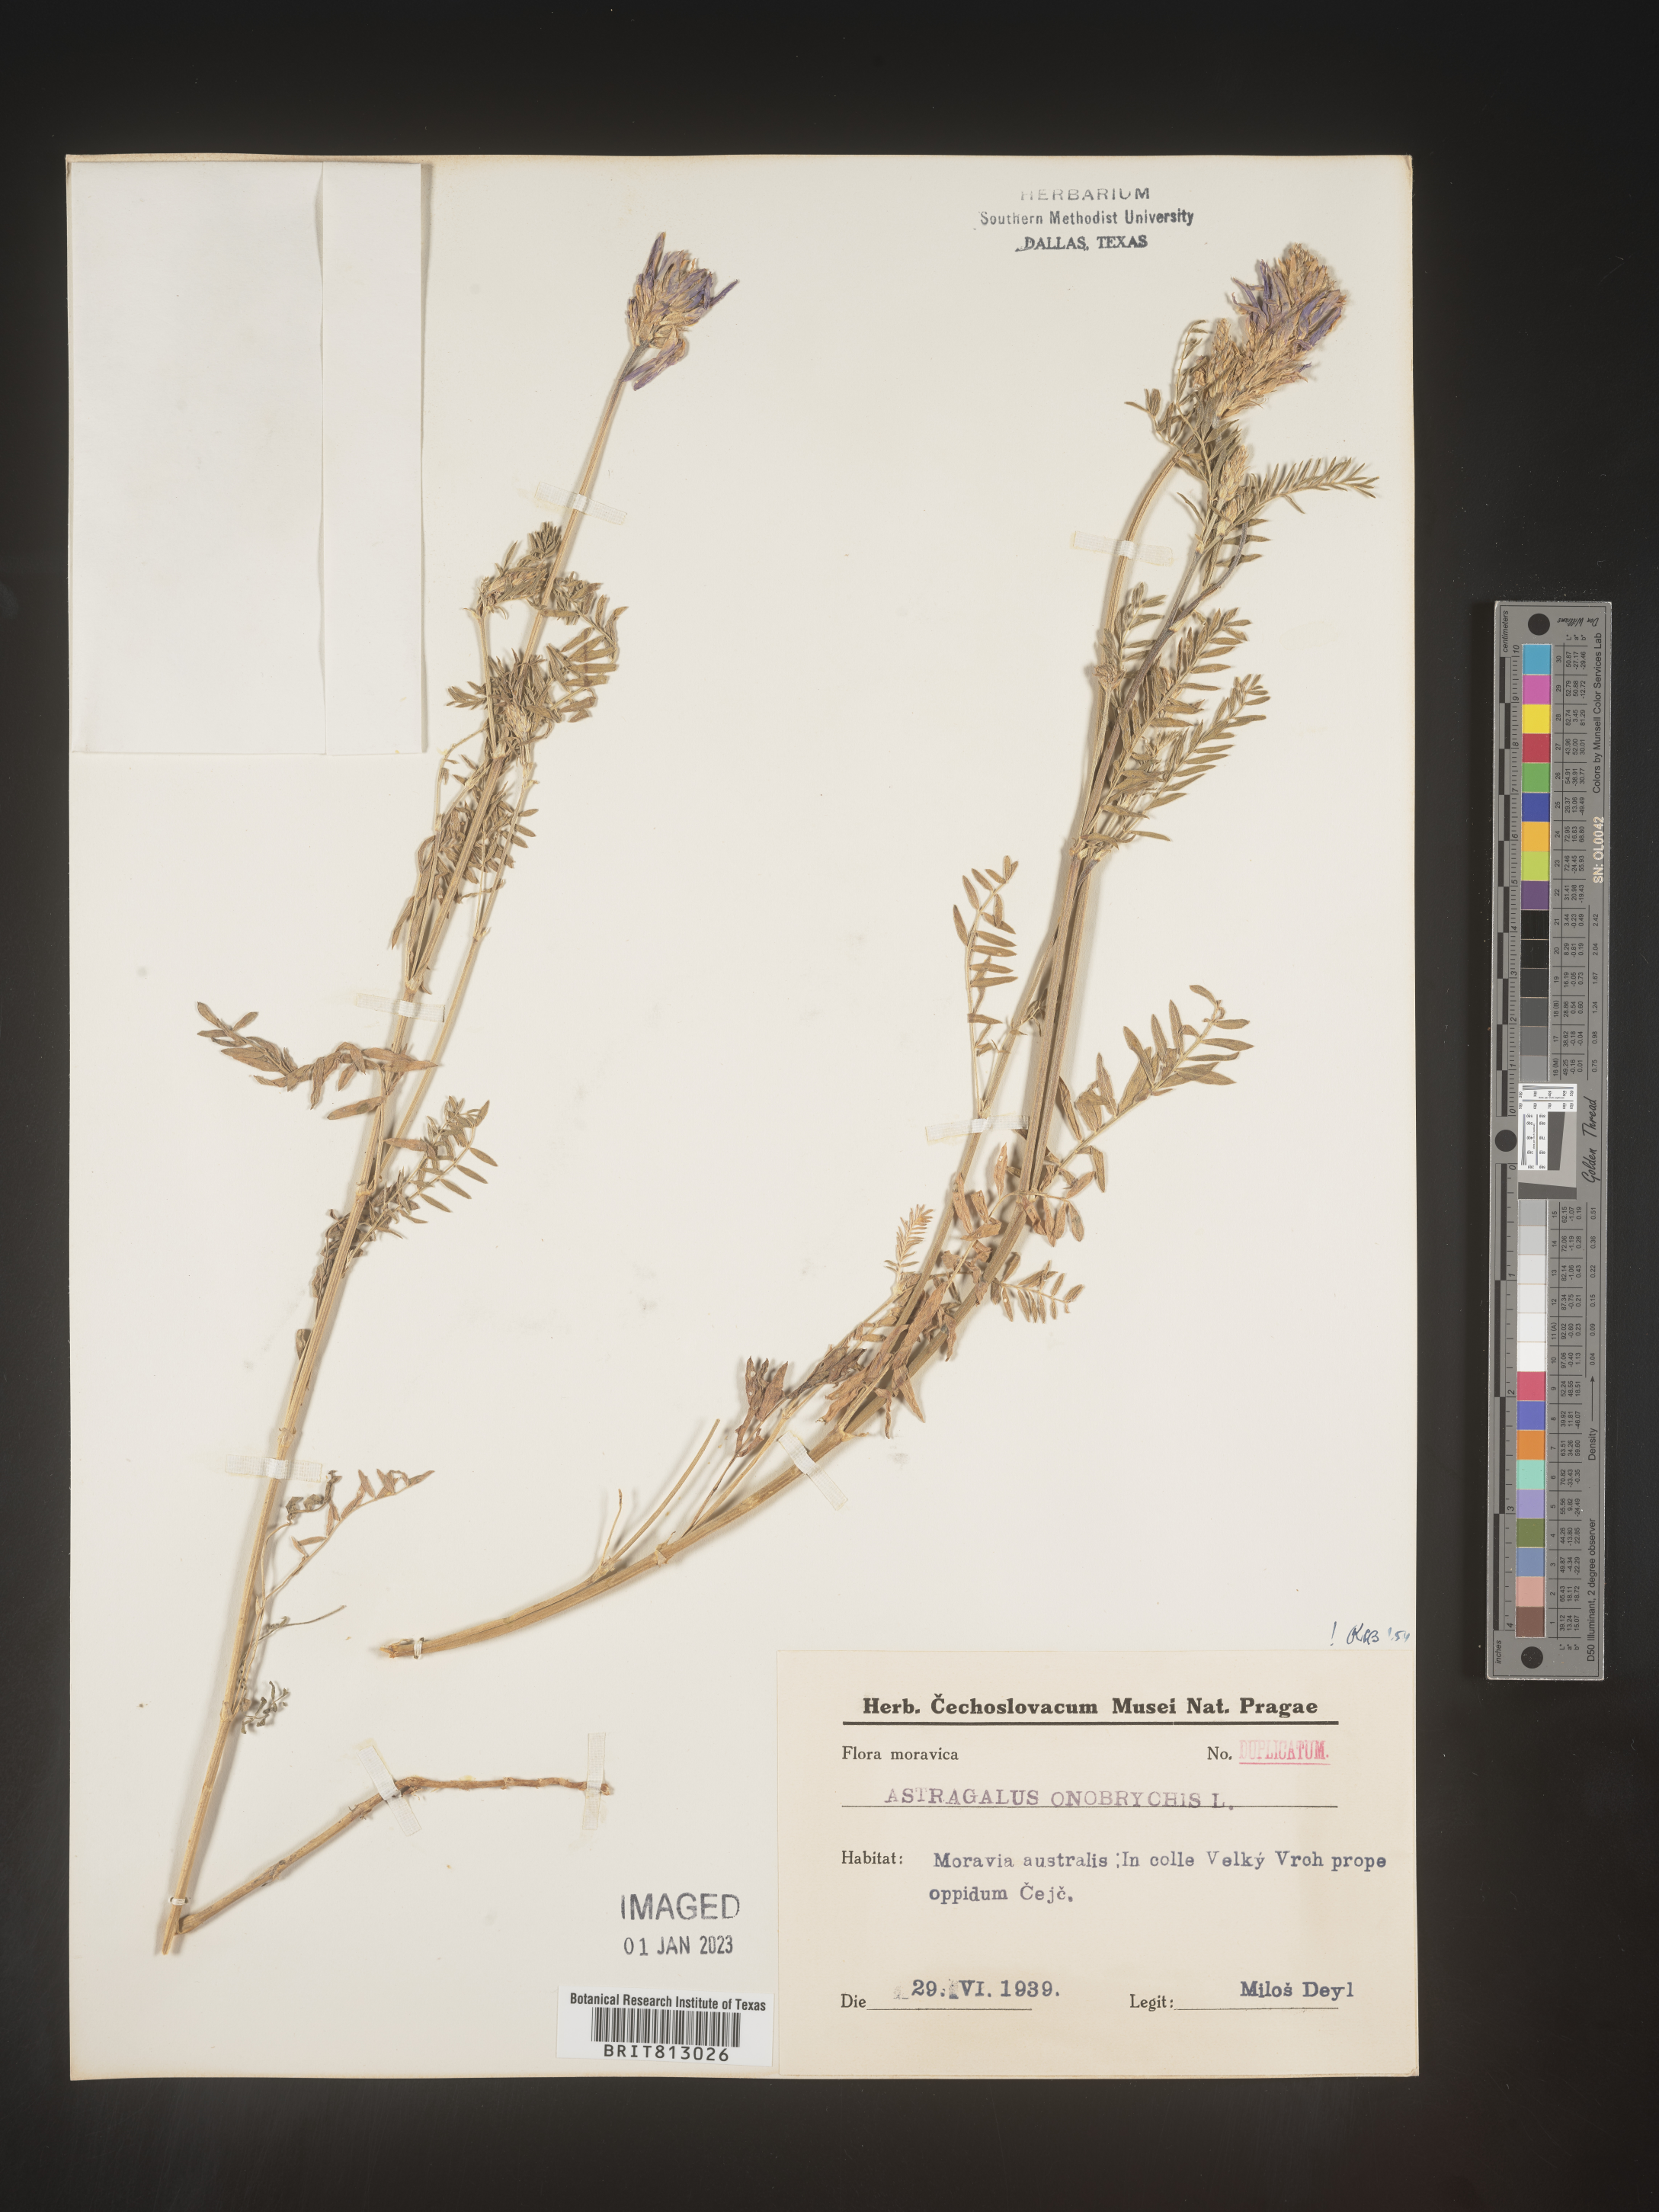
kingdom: Plantae
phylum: Tracheophyta
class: Magnoliopsida
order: Fabales
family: Fabaceae
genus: Astragalus
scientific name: Astragalus
